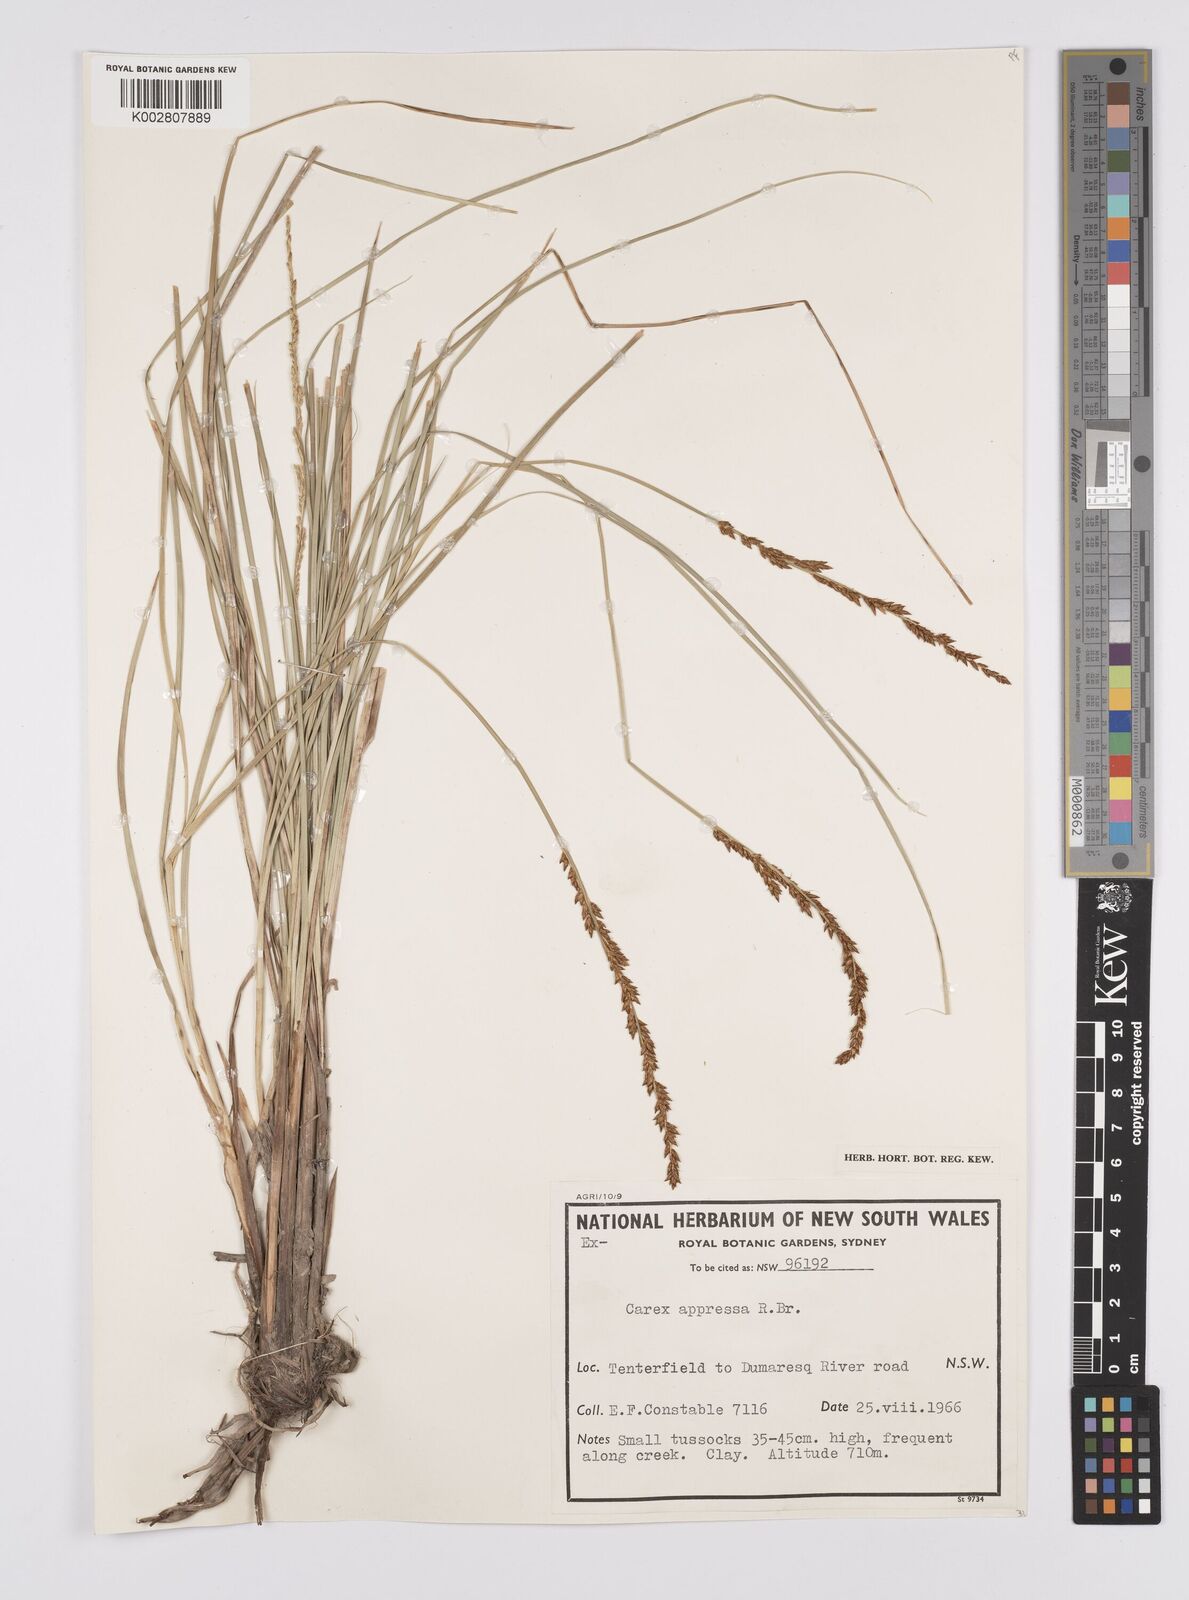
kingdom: Plantae
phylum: Tracheophyta
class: Liliopsida
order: Poales
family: Cyperaceae
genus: Carex
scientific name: Carex appressa
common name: Tussock sedge
